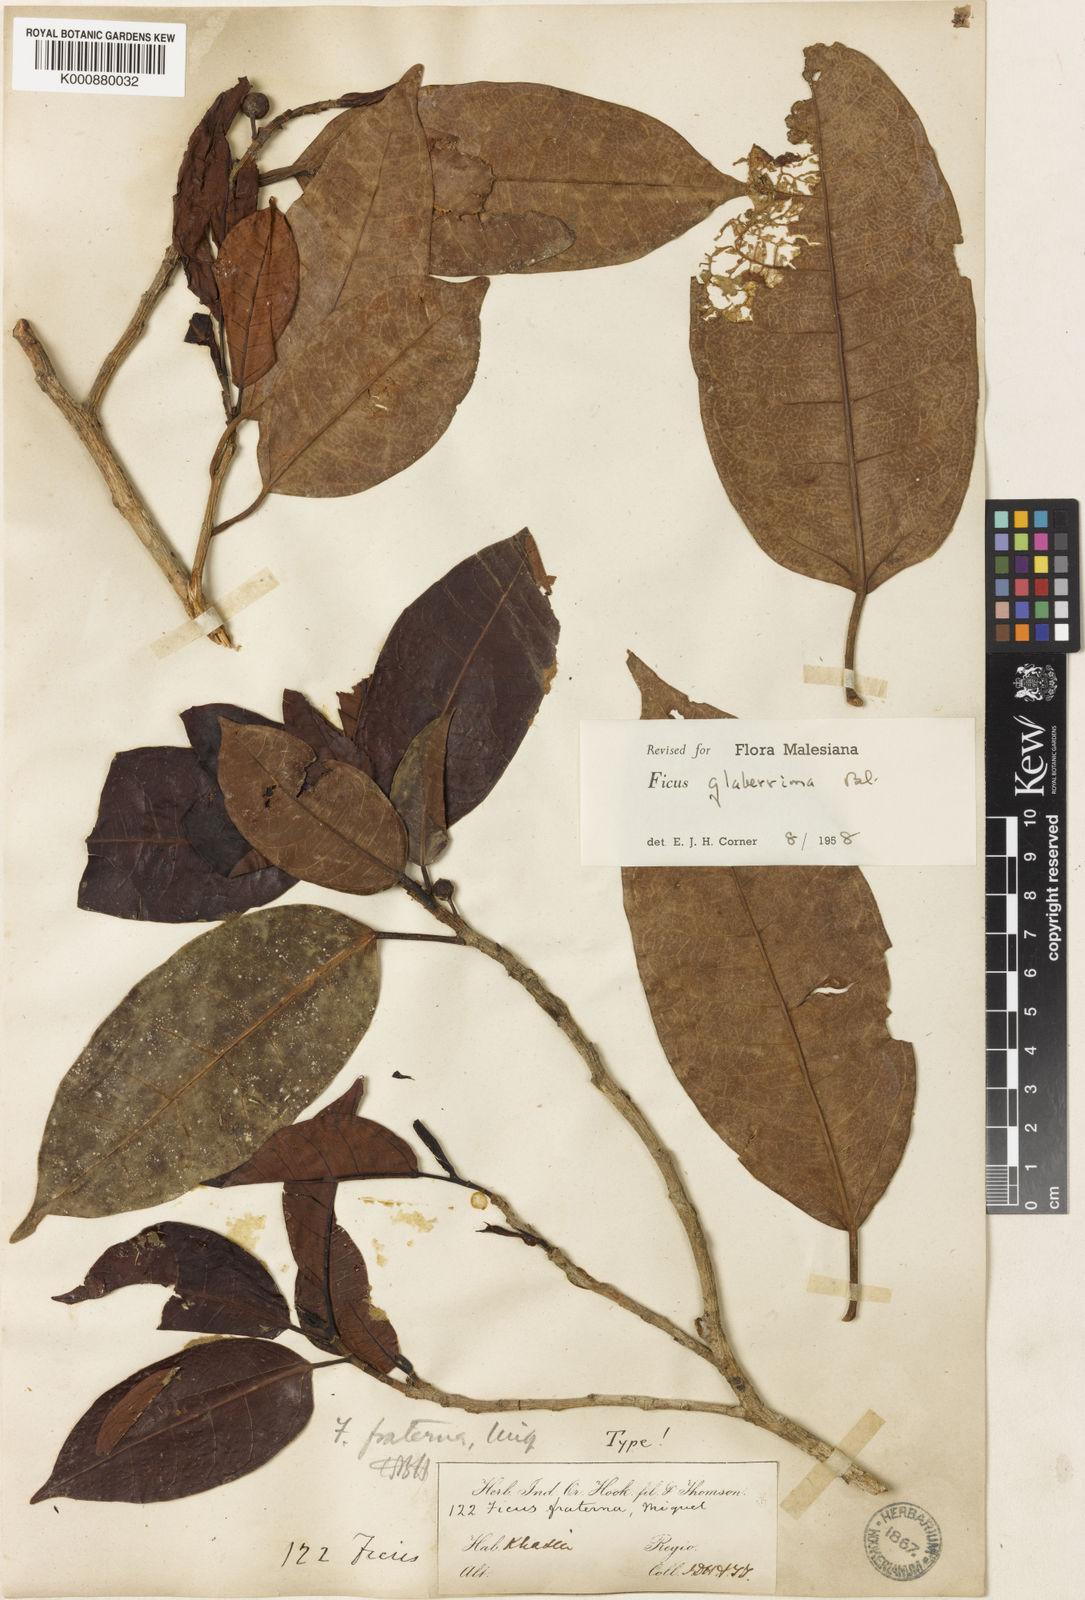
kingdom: Plantae
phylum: Tracheophyta
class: Magnoliopsida
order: Rosales
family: Moraceae
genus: Ficus
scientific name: Ficus glaberrima
